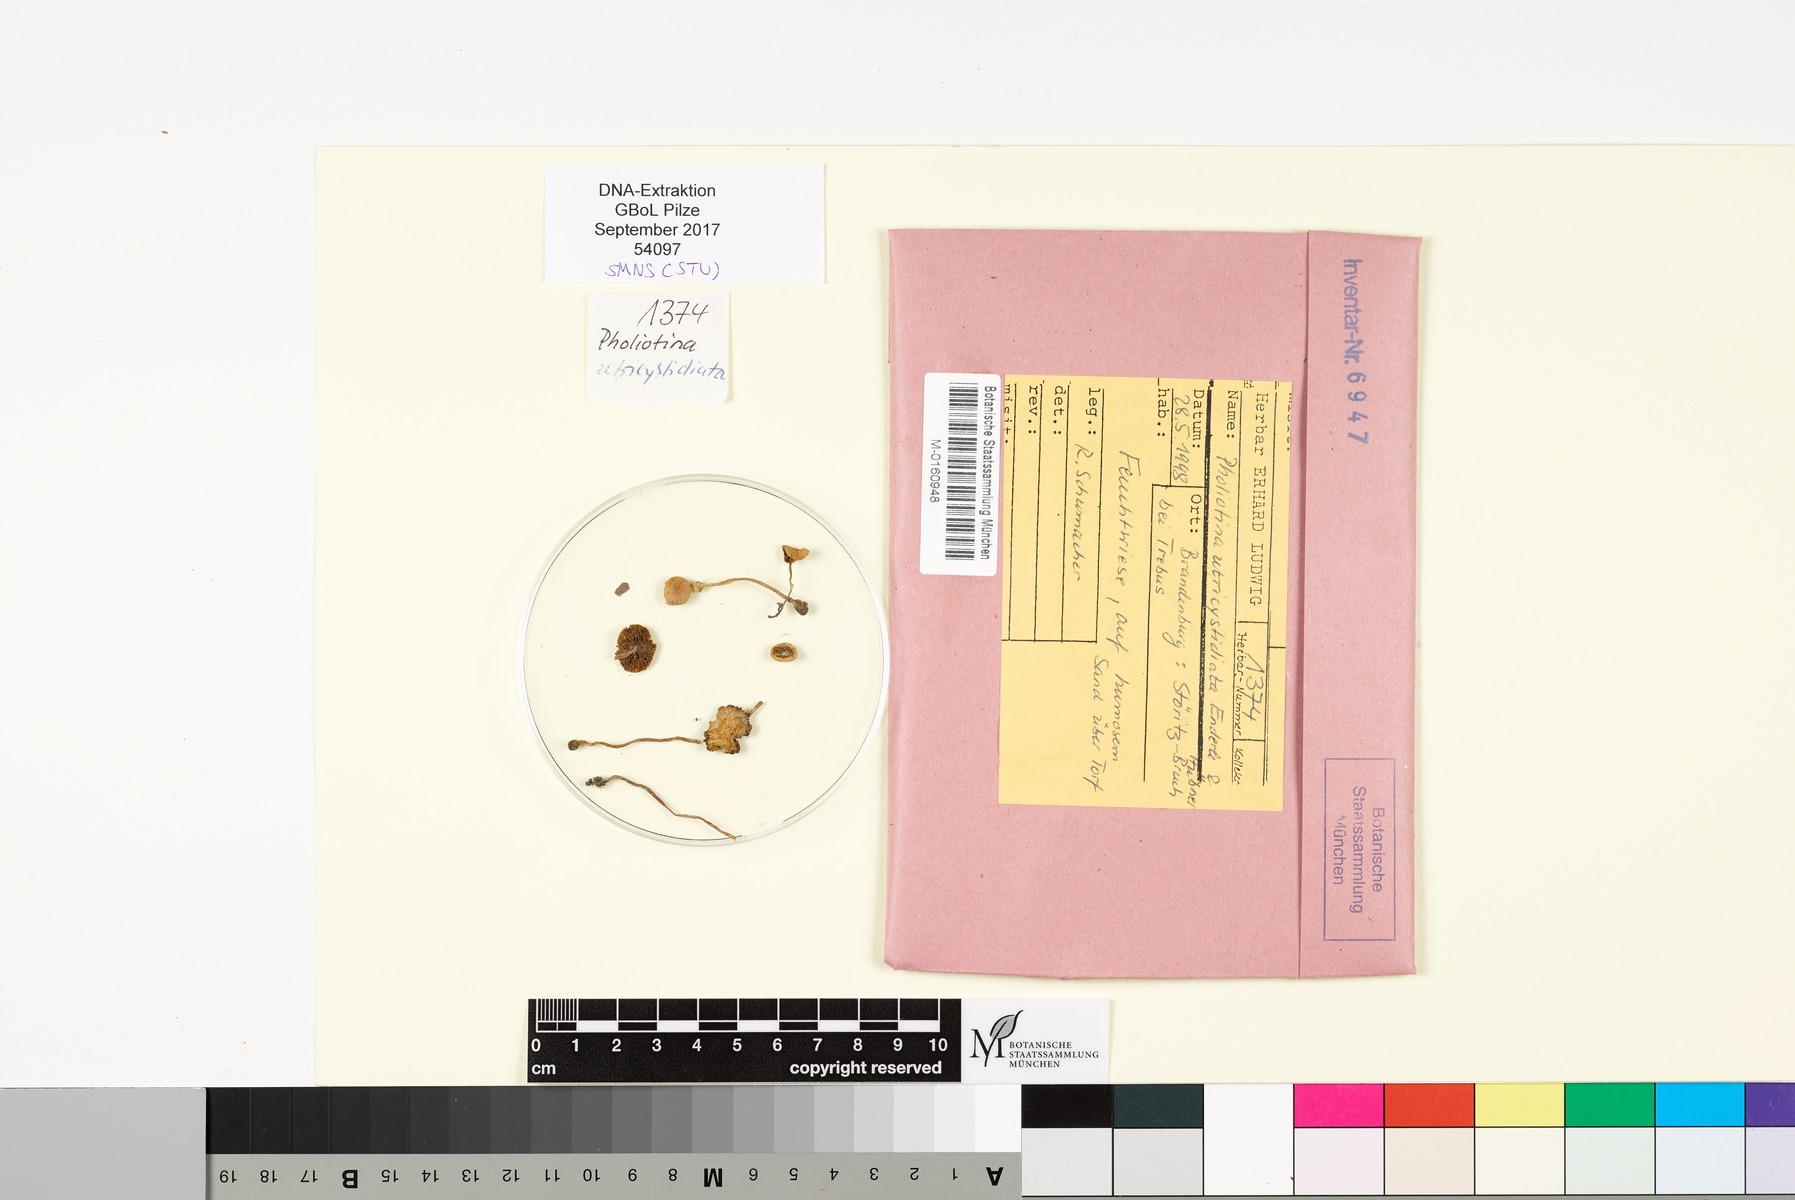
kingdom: Fungi
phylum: Basidiomycota
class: Agaricomycetes
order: Agaricales
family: Bolbitiaceae
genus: Conocybe
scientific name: Conocybe utricystidiata
